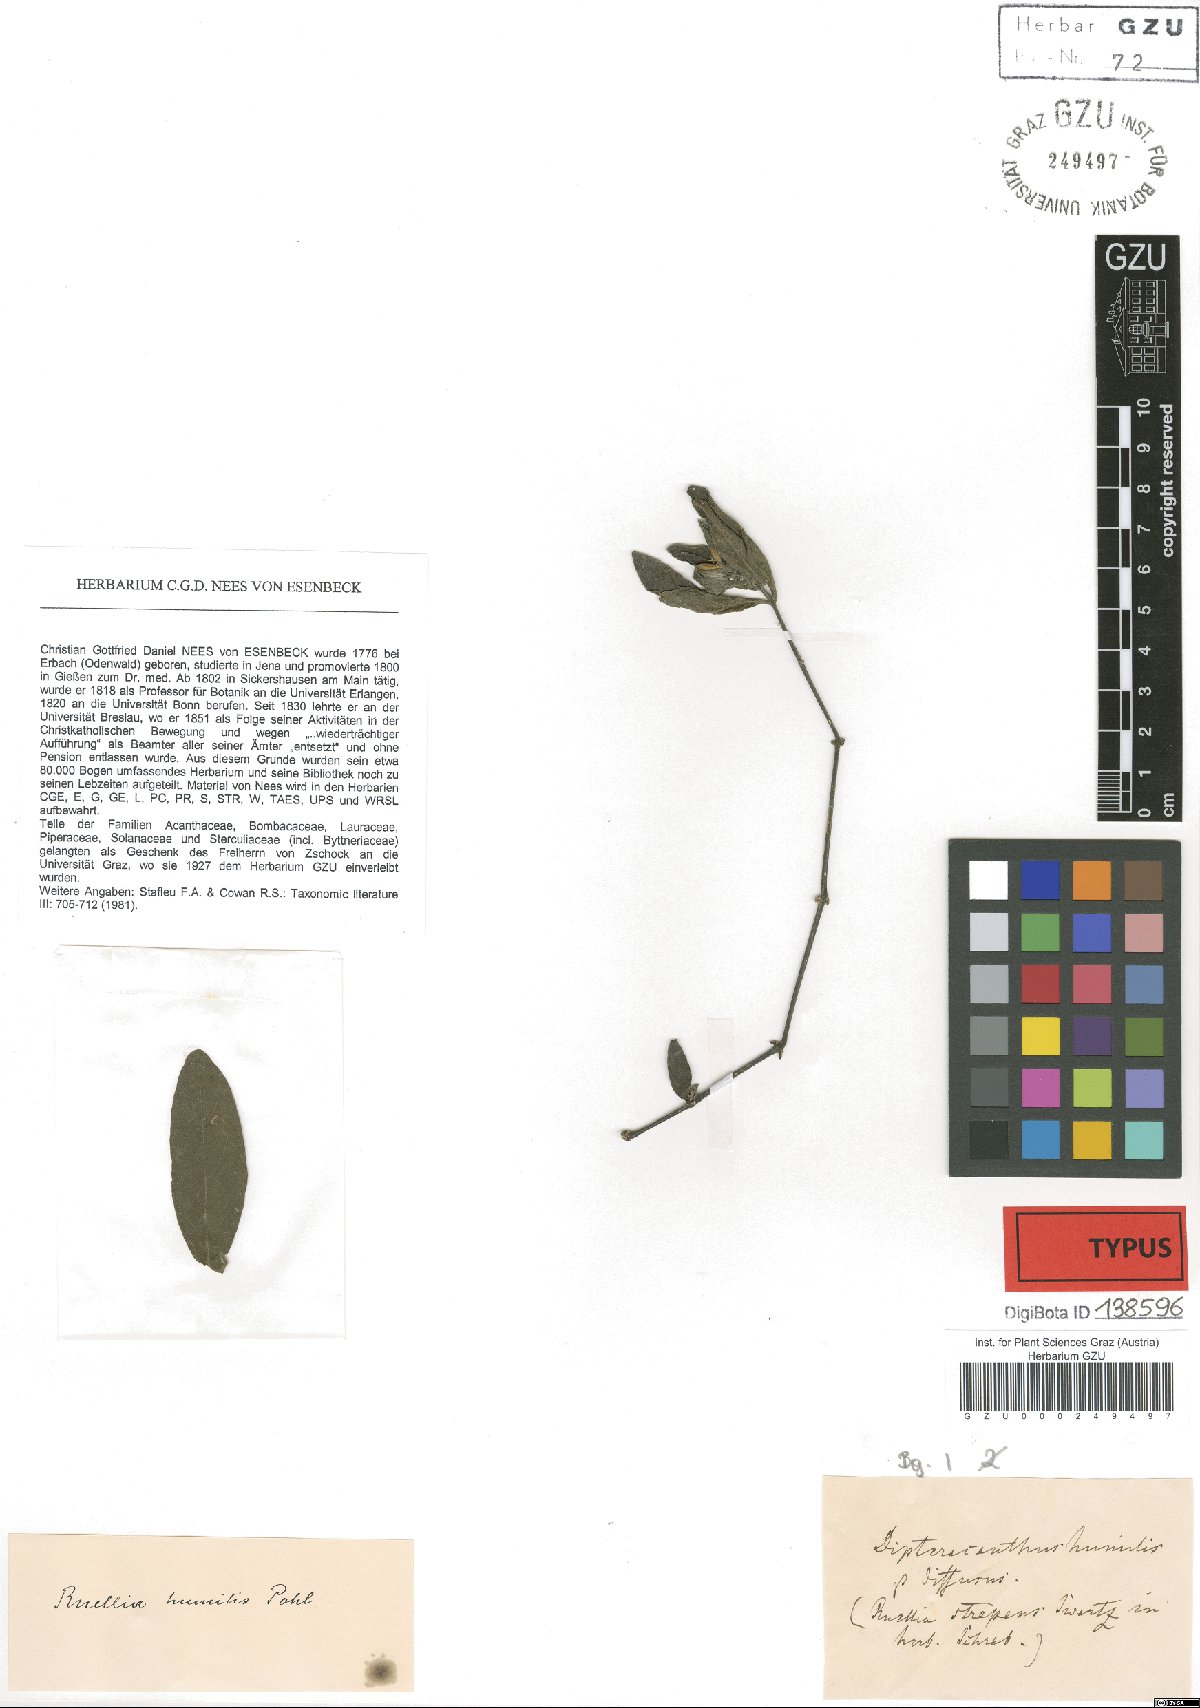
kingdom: Plantae
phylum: Tracheophyta
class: Magnoliopsida
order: Lamiales
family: Acanthaceae
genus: Ruellia
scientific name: Ruellia geminiflora
